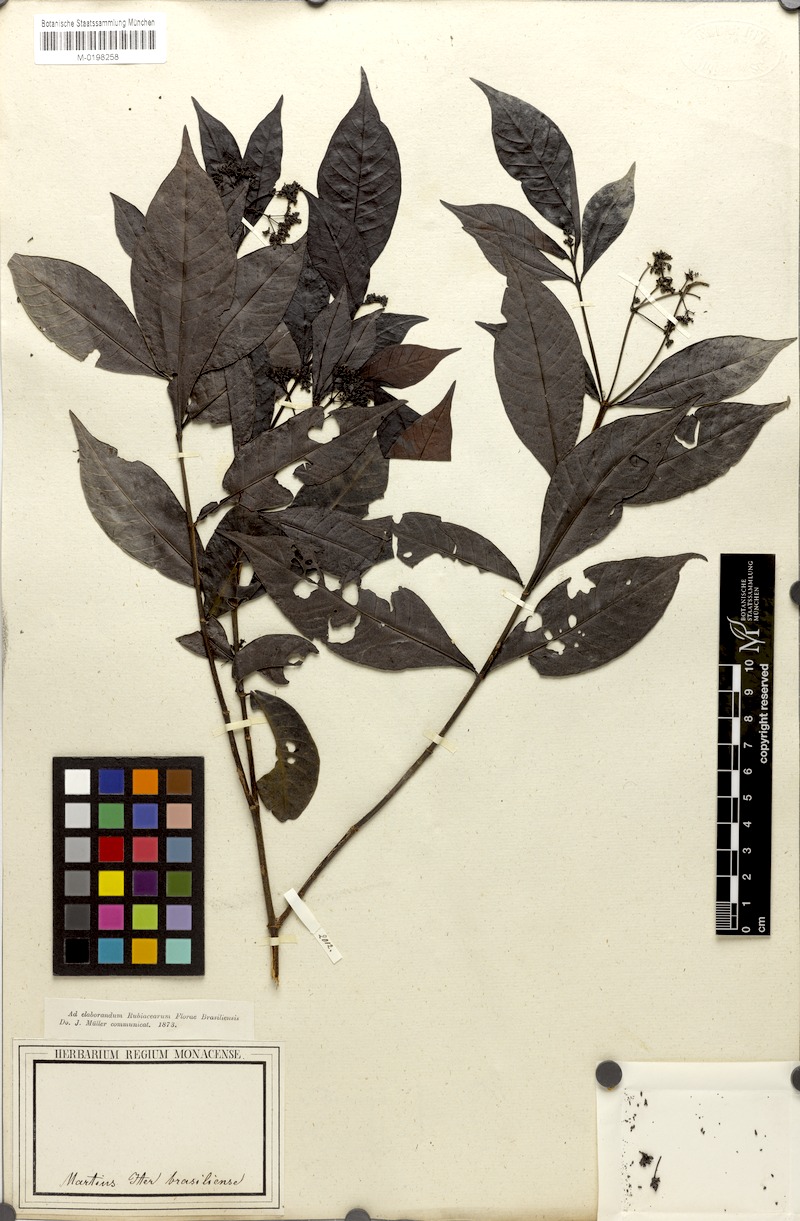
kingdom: Plantae
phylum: Tracheophyta
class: Magnoliopsida
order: Gentianales
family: Rubiaceae
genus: Psychotria
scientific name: Psychotria Mapouria lurida
